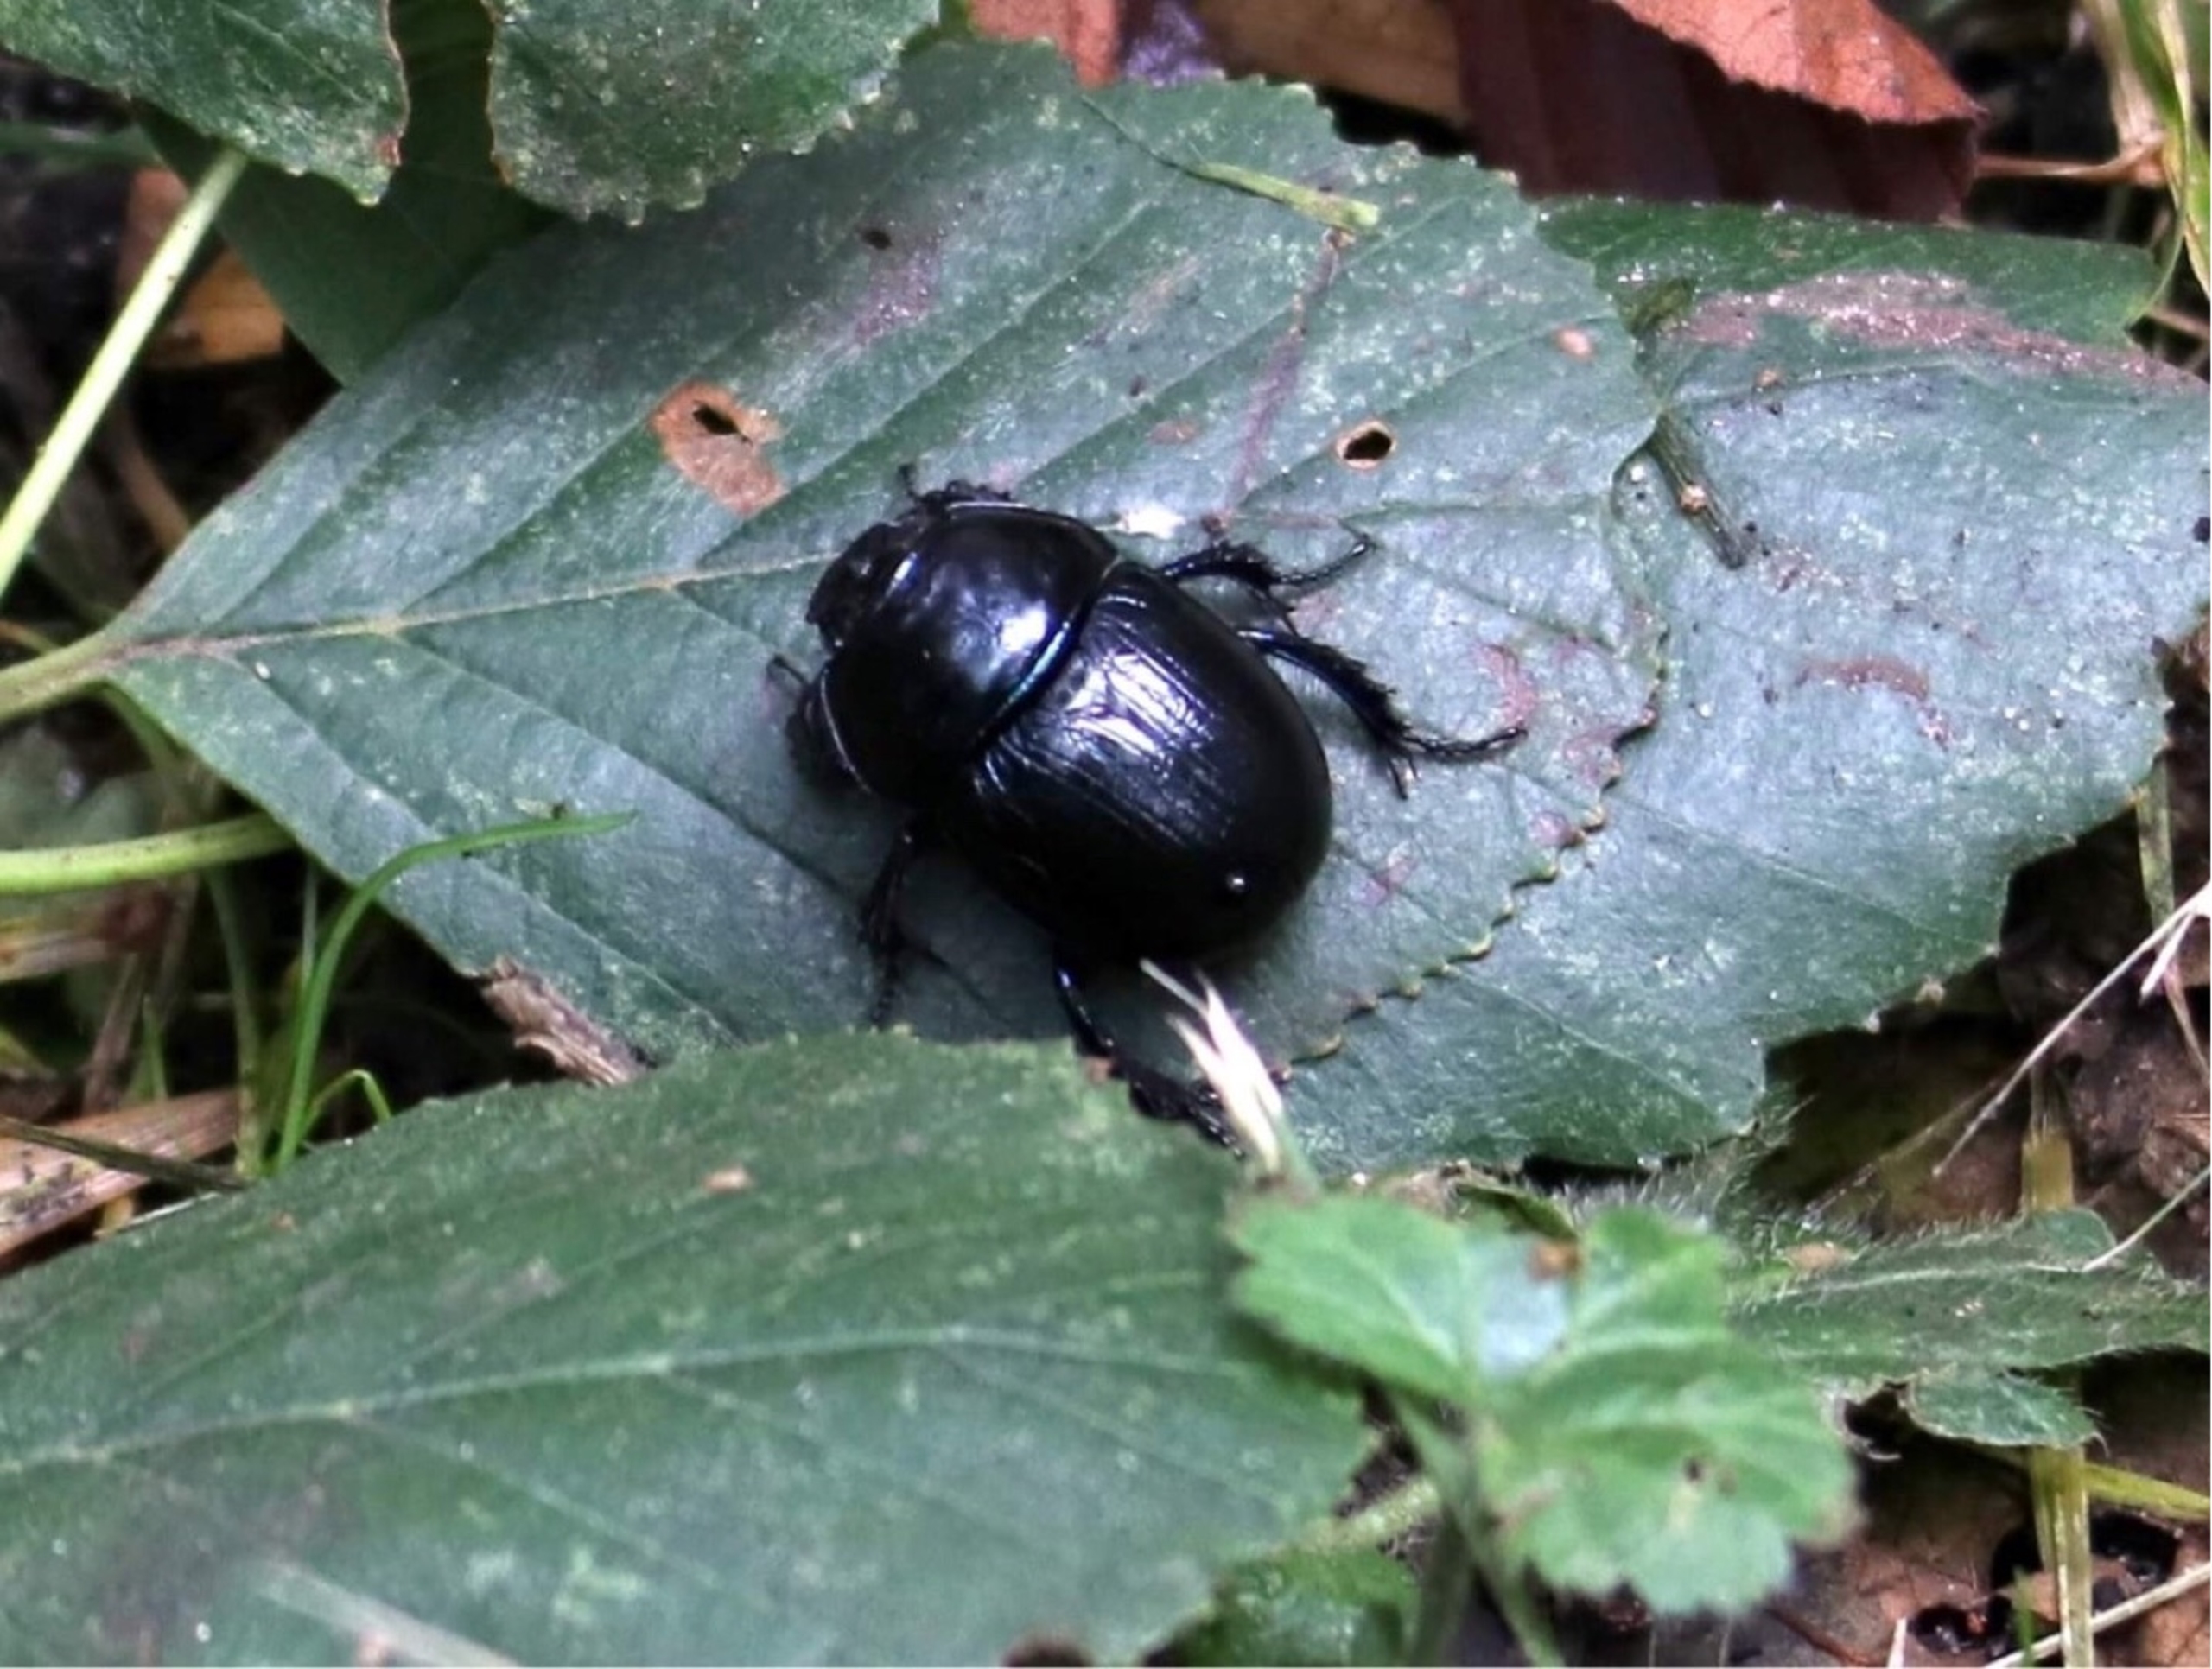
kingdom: Animalia
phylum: Arthropoda
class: Insecta
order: Coleoptera
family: Geotrupidae
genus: Anoplotrupes
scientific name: Anoplotrupes stercorosus
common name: Skovskarnbasse
